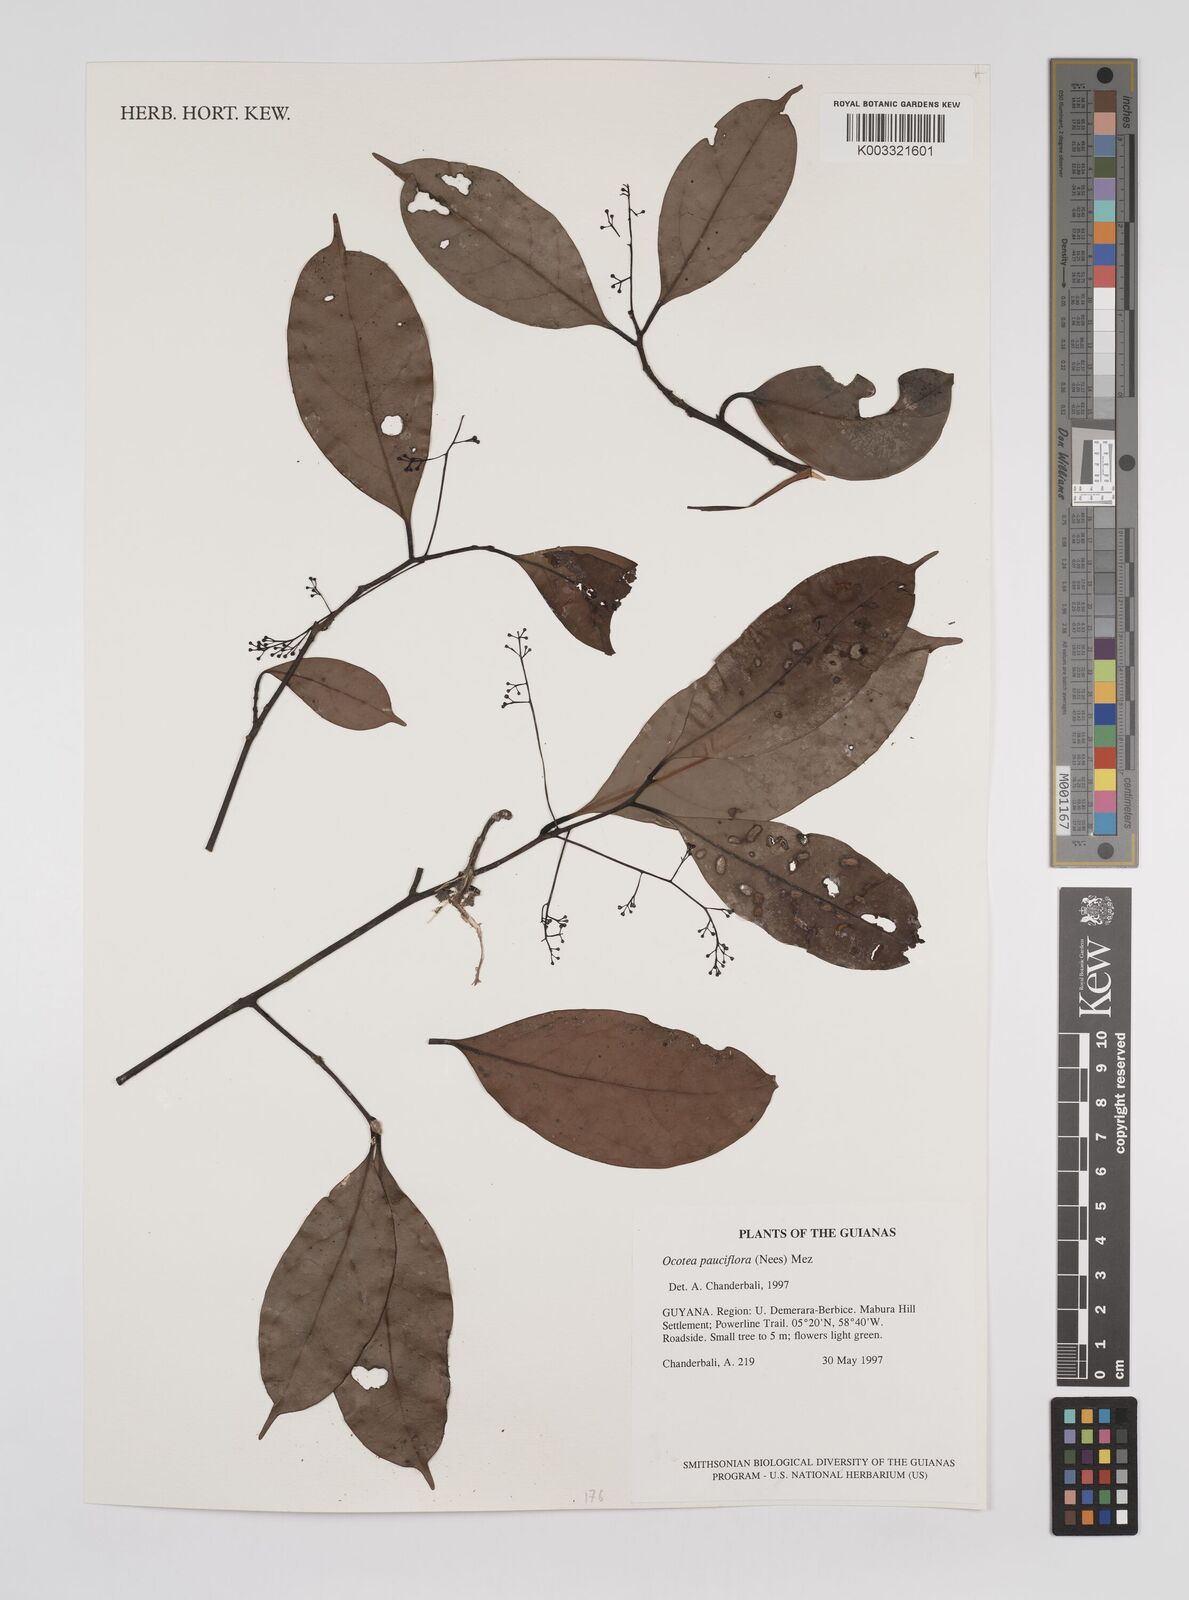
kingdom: Plantae
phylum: Tracheophyta
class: Magnoliopsida
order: Laurales
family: Lauraceae
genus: Ocotea
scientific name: Ocotea pauciflora
